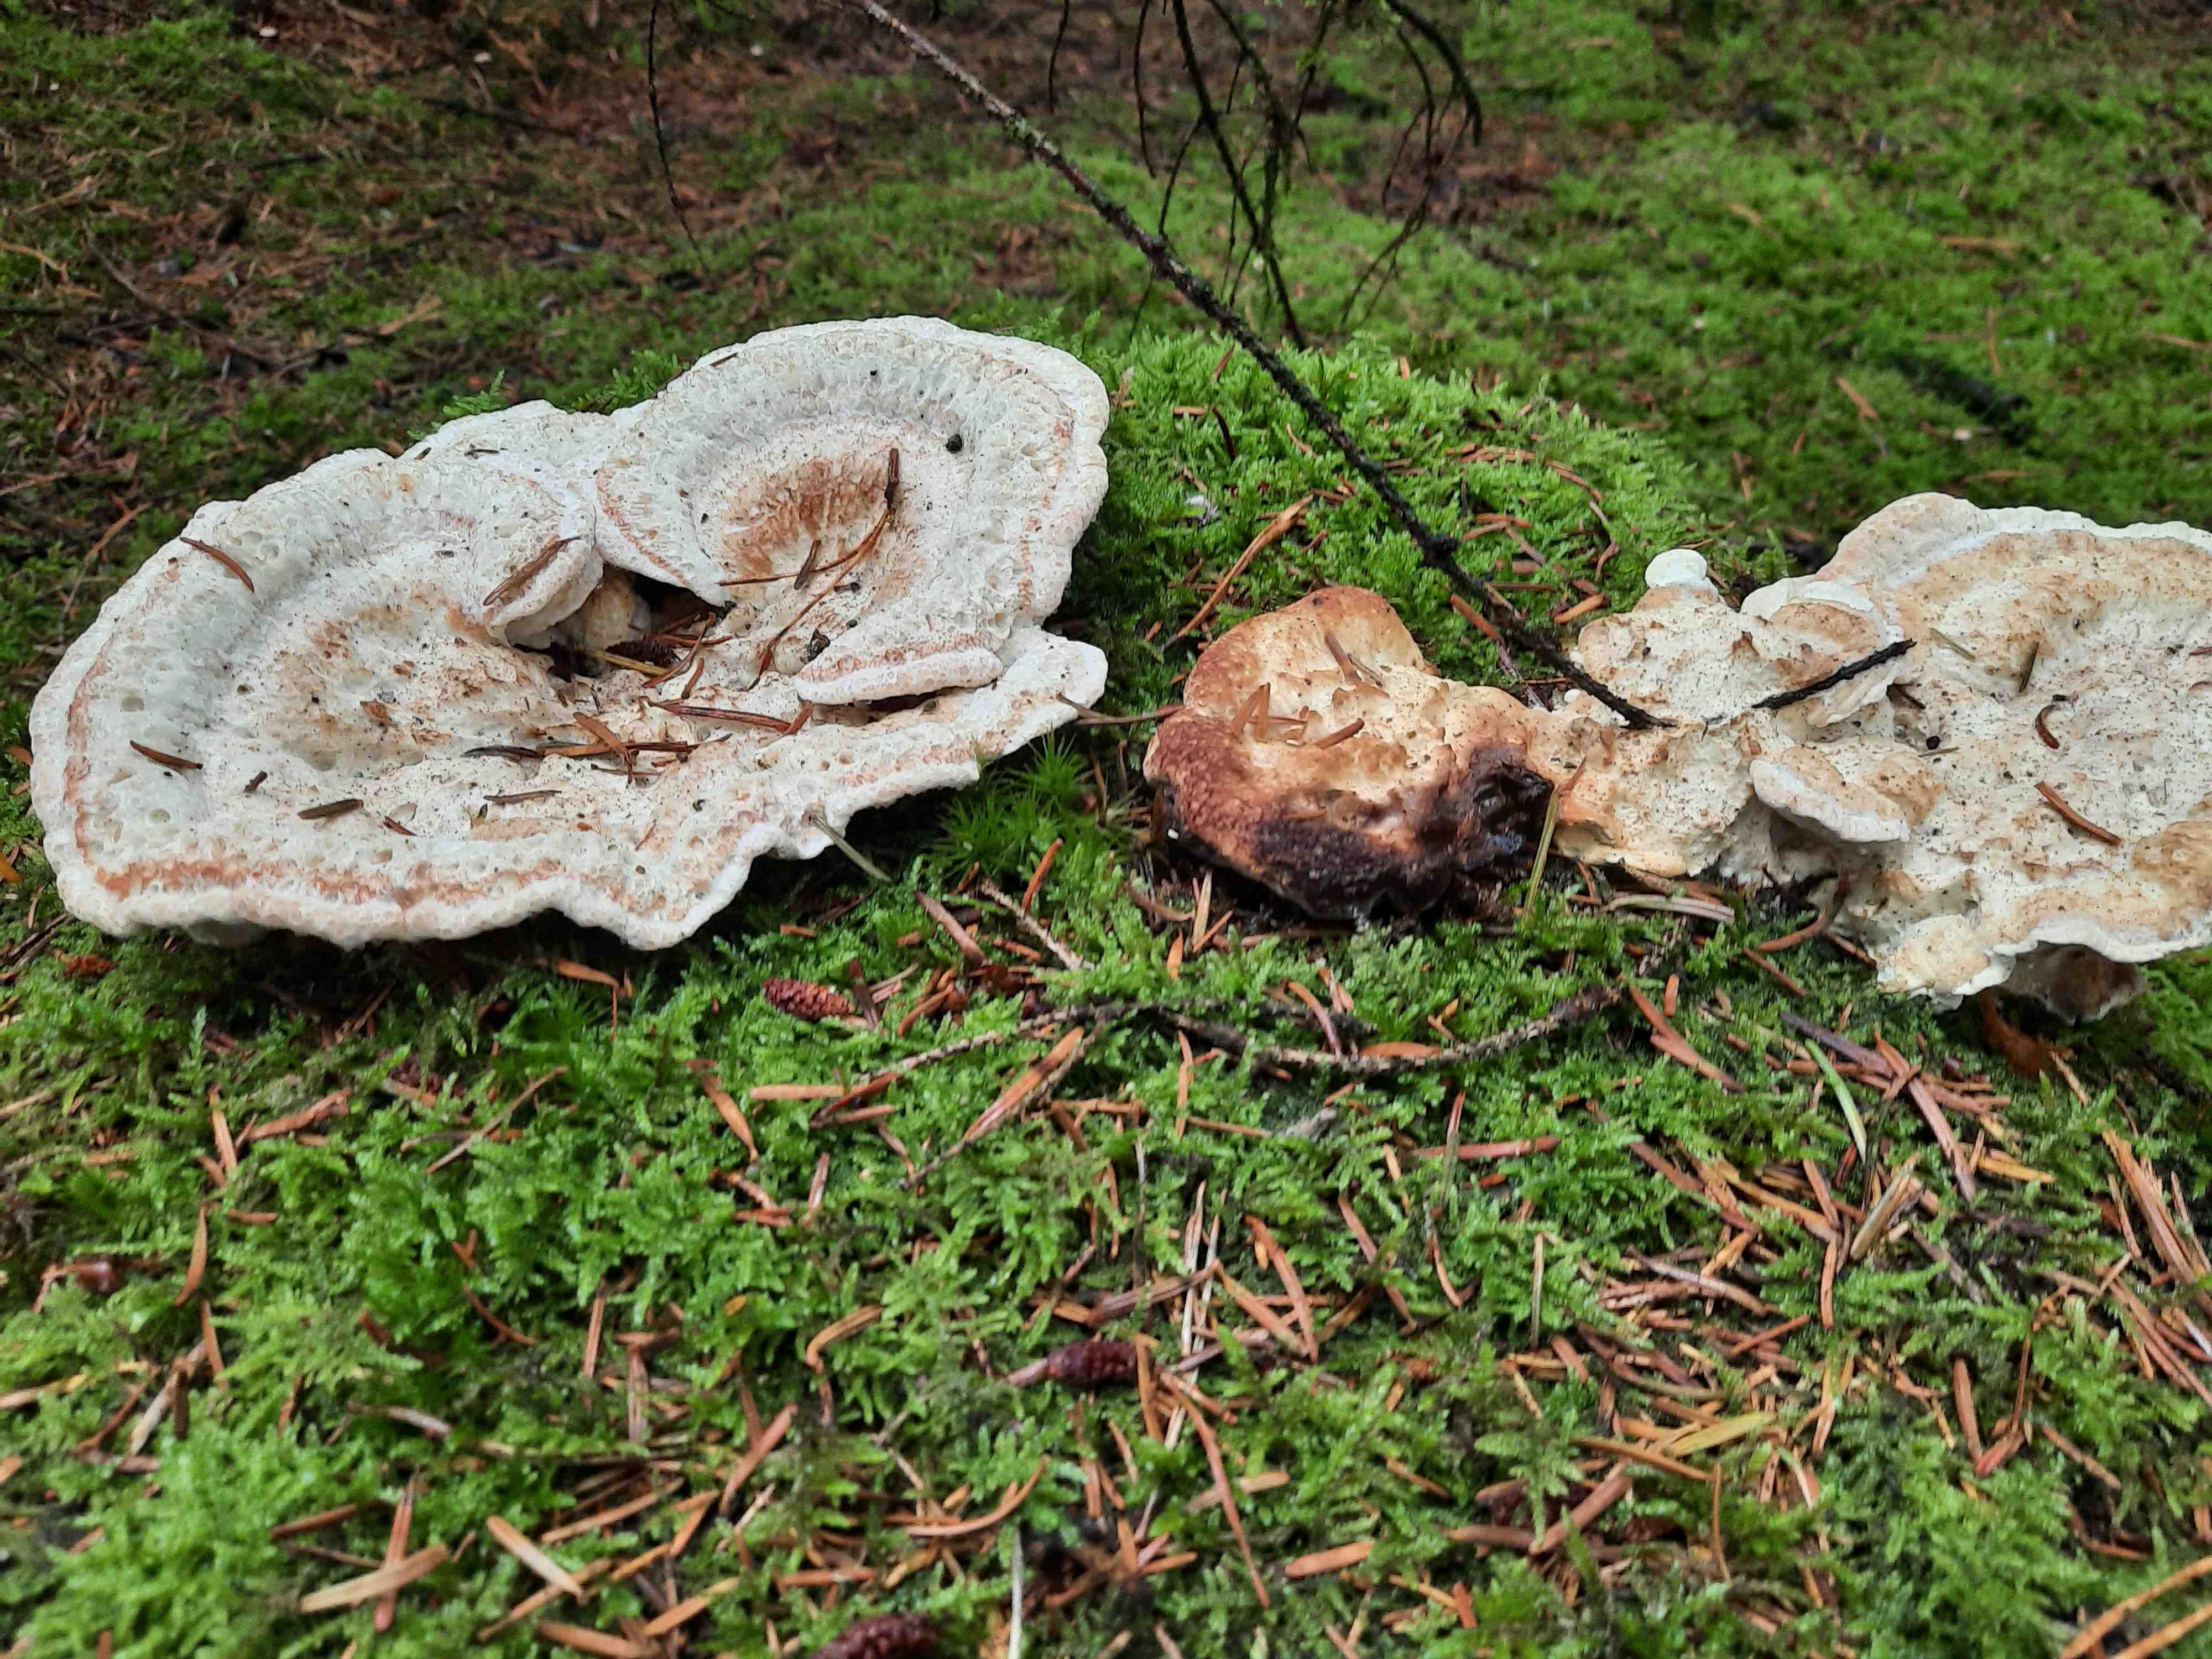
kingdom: Fungi
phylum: Basidiomycota
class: Agaricomycetes
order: Polyporales
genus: Calcipostia
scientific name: Calcipostia guttulata
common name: dråbe-kødporesvamp
